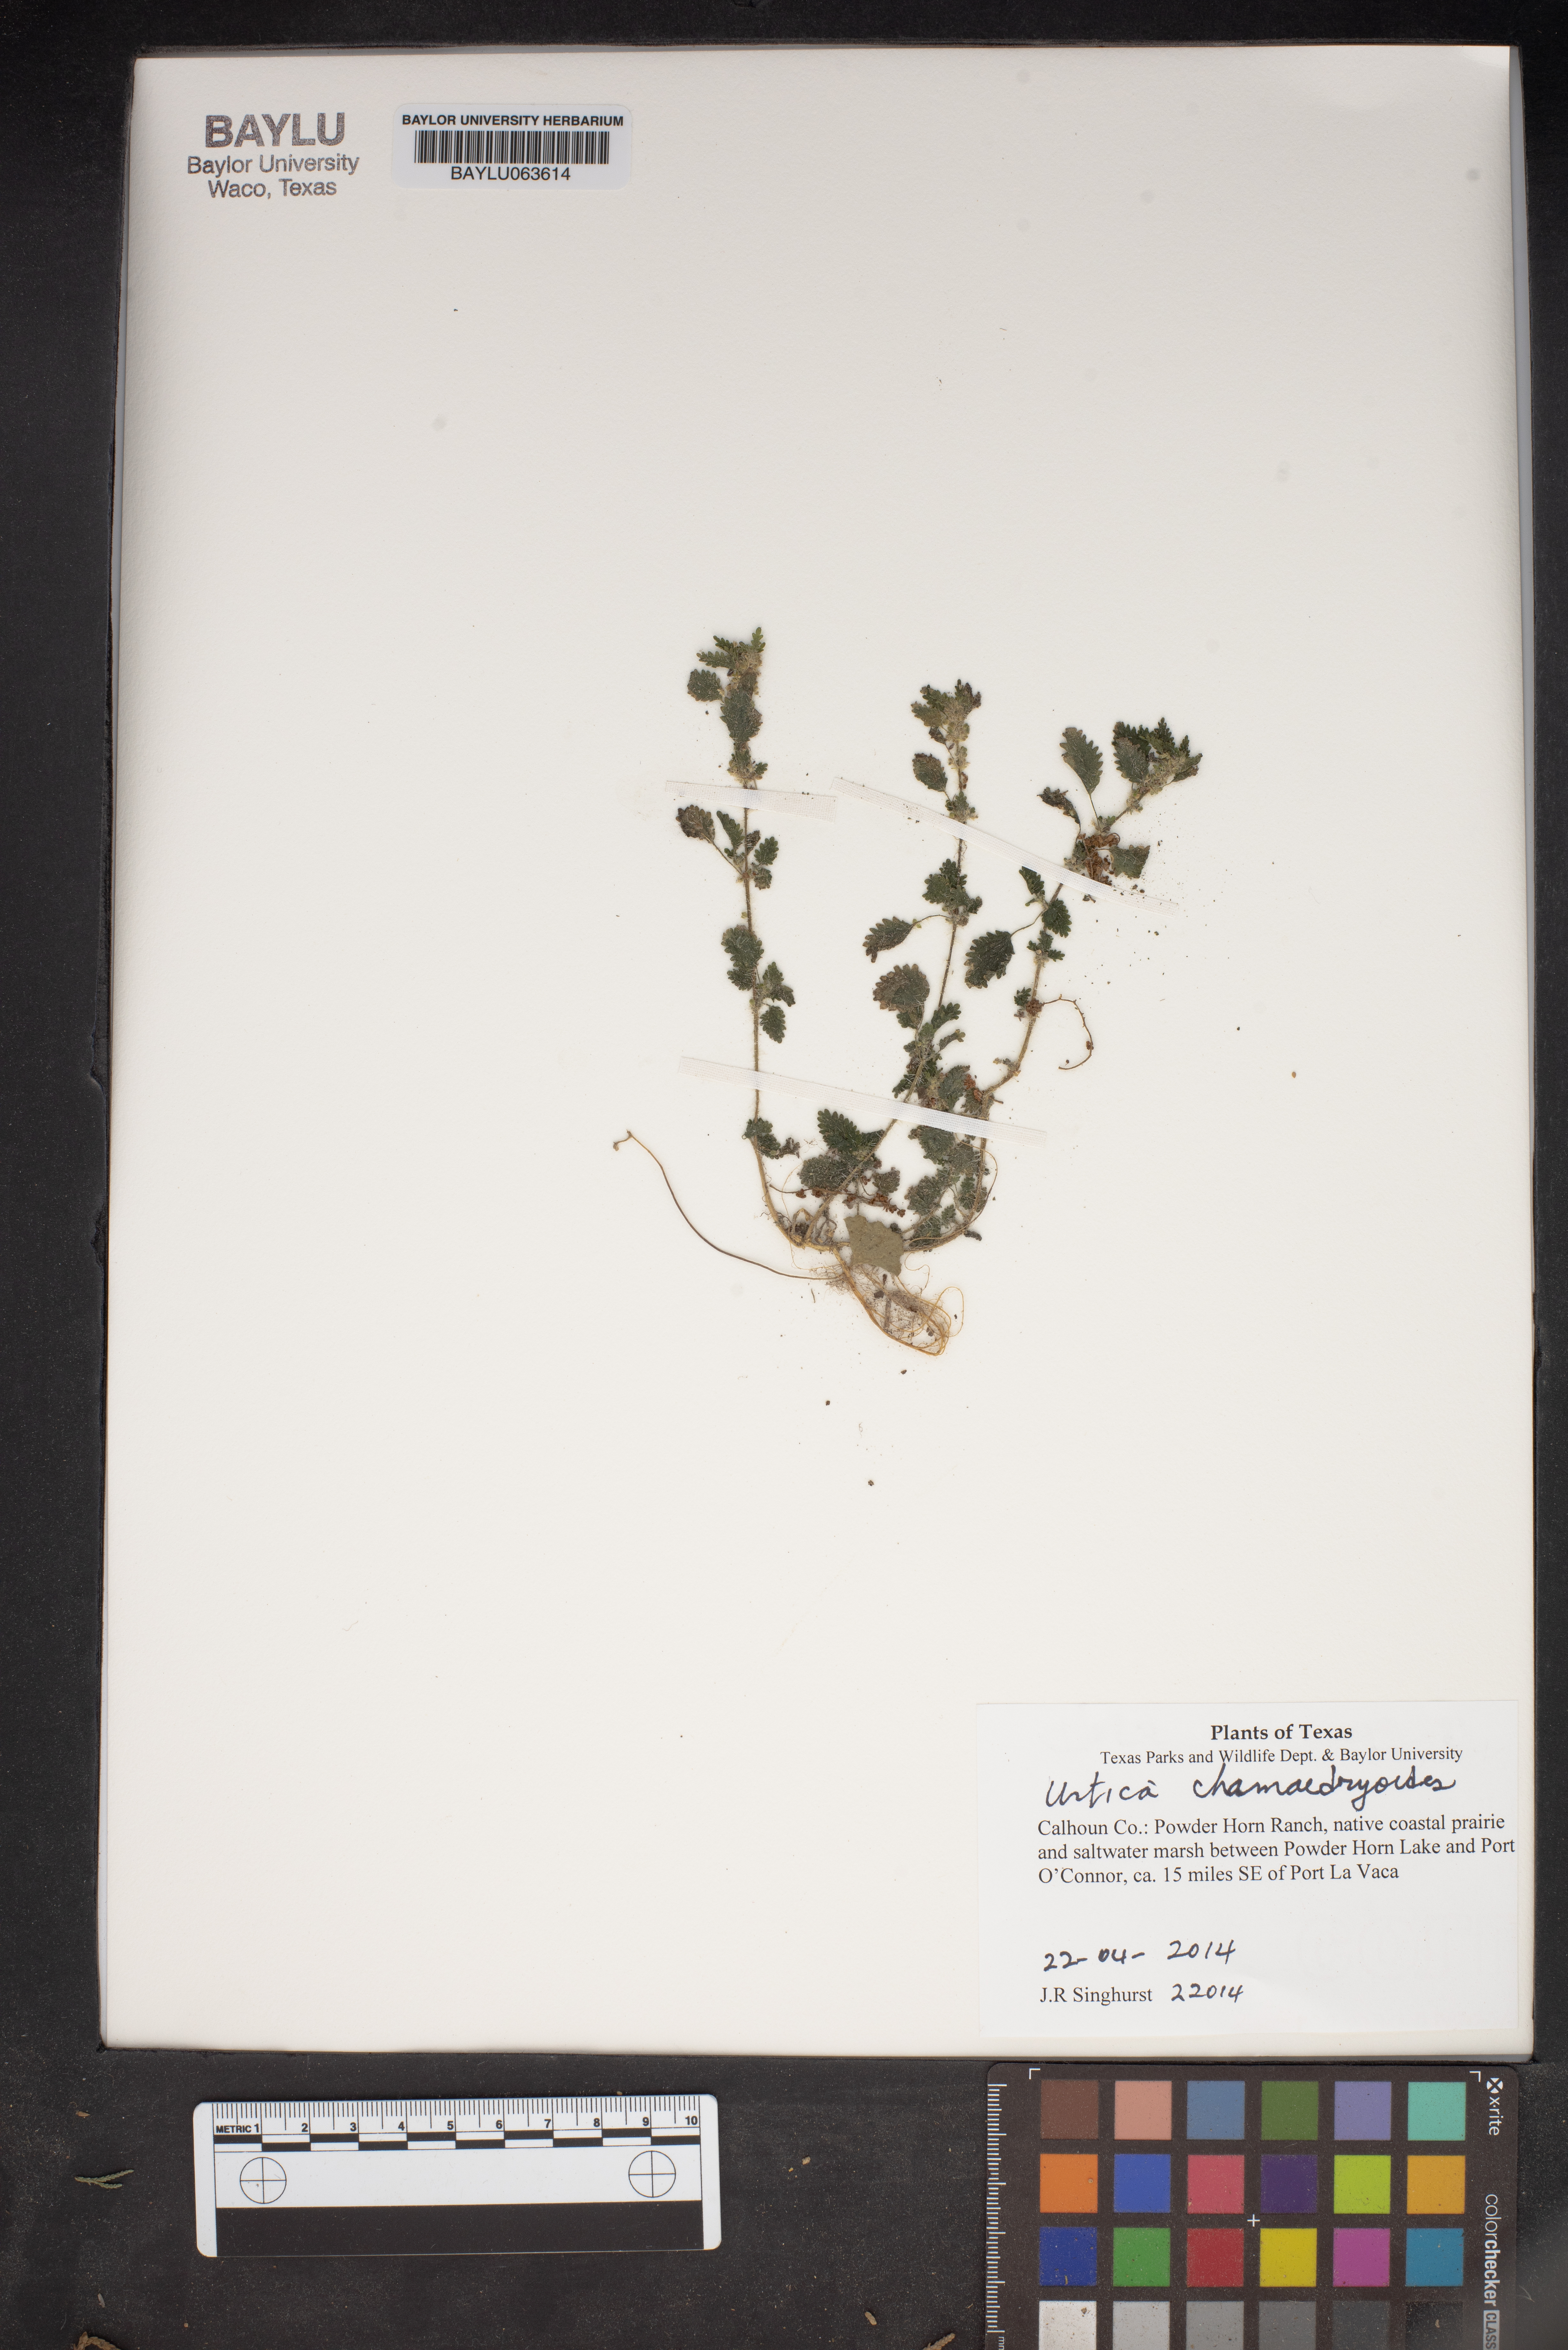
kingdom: Plantae
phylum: Tracheophyta
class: Magnoliopsida
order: Rosales
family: Urticaceae
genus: Urtica
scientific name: Urtica chamaedryoides
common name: Heart-leaf nettle
